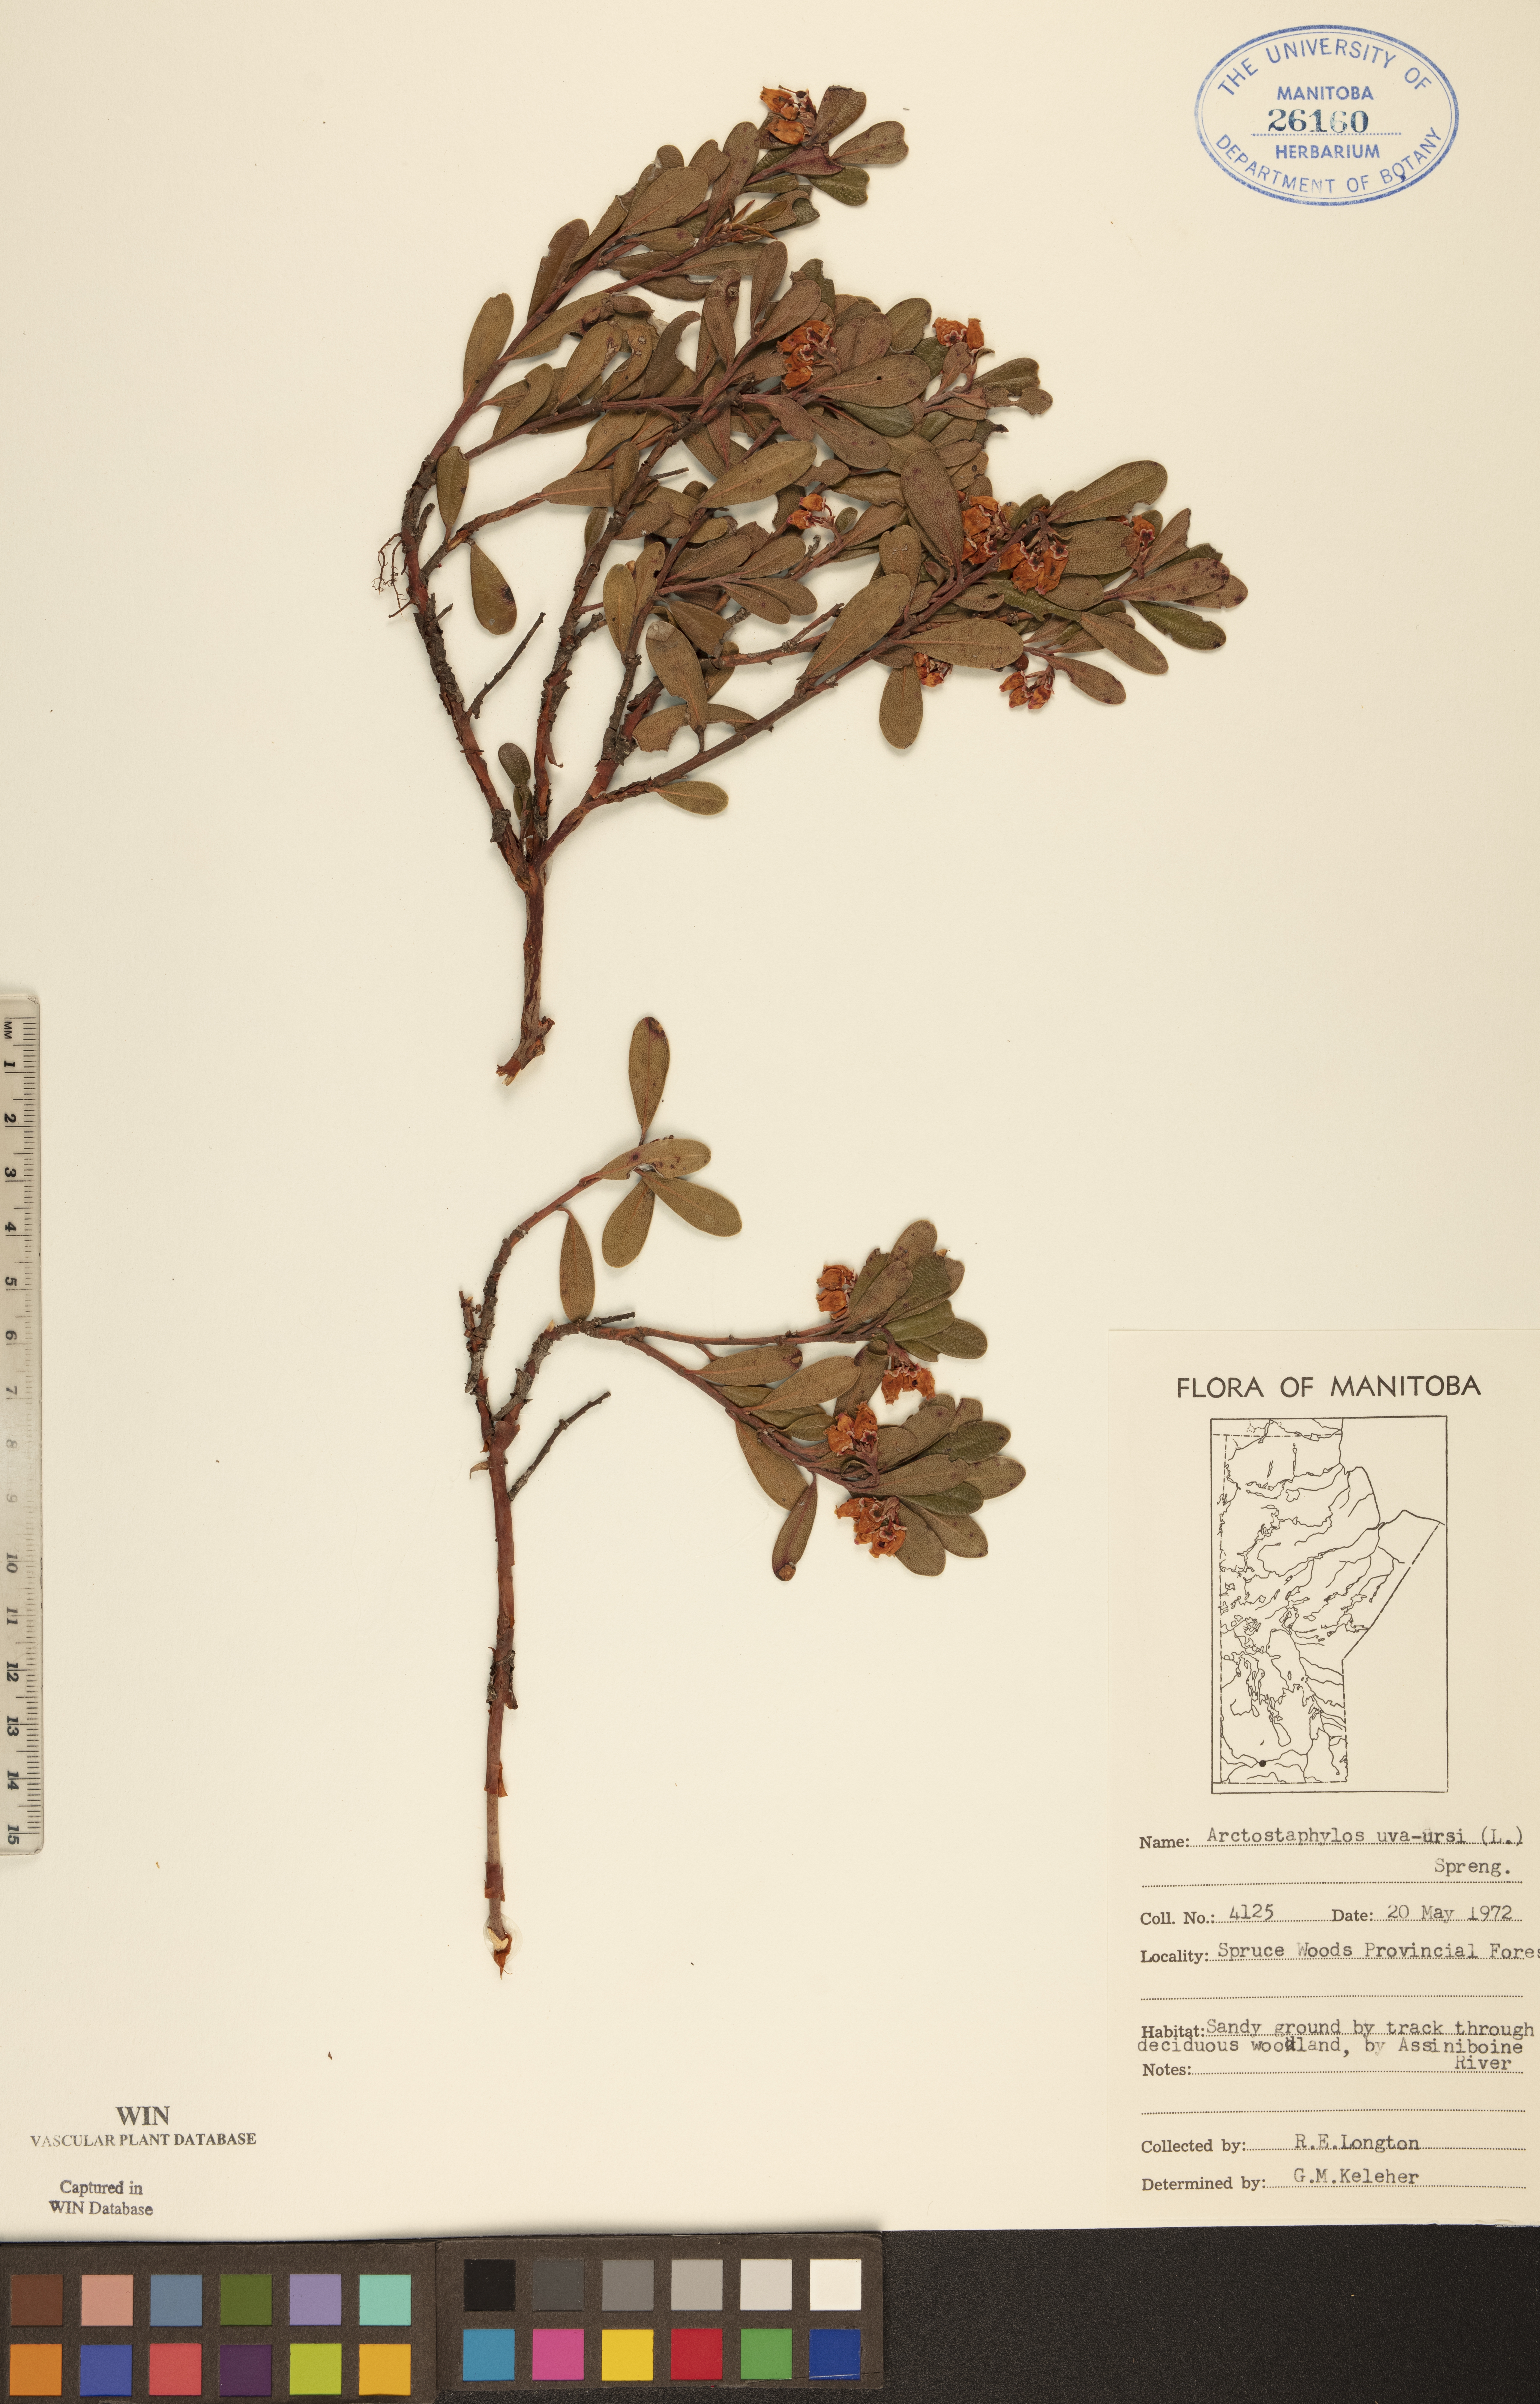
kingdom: Plantae
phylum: Tracheophyta
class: Magnoliopsida
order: Ericales
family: Ericaceae
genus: Arctostaphylos
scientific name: Arctostaphylos uva-ursi
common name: Bearberry
